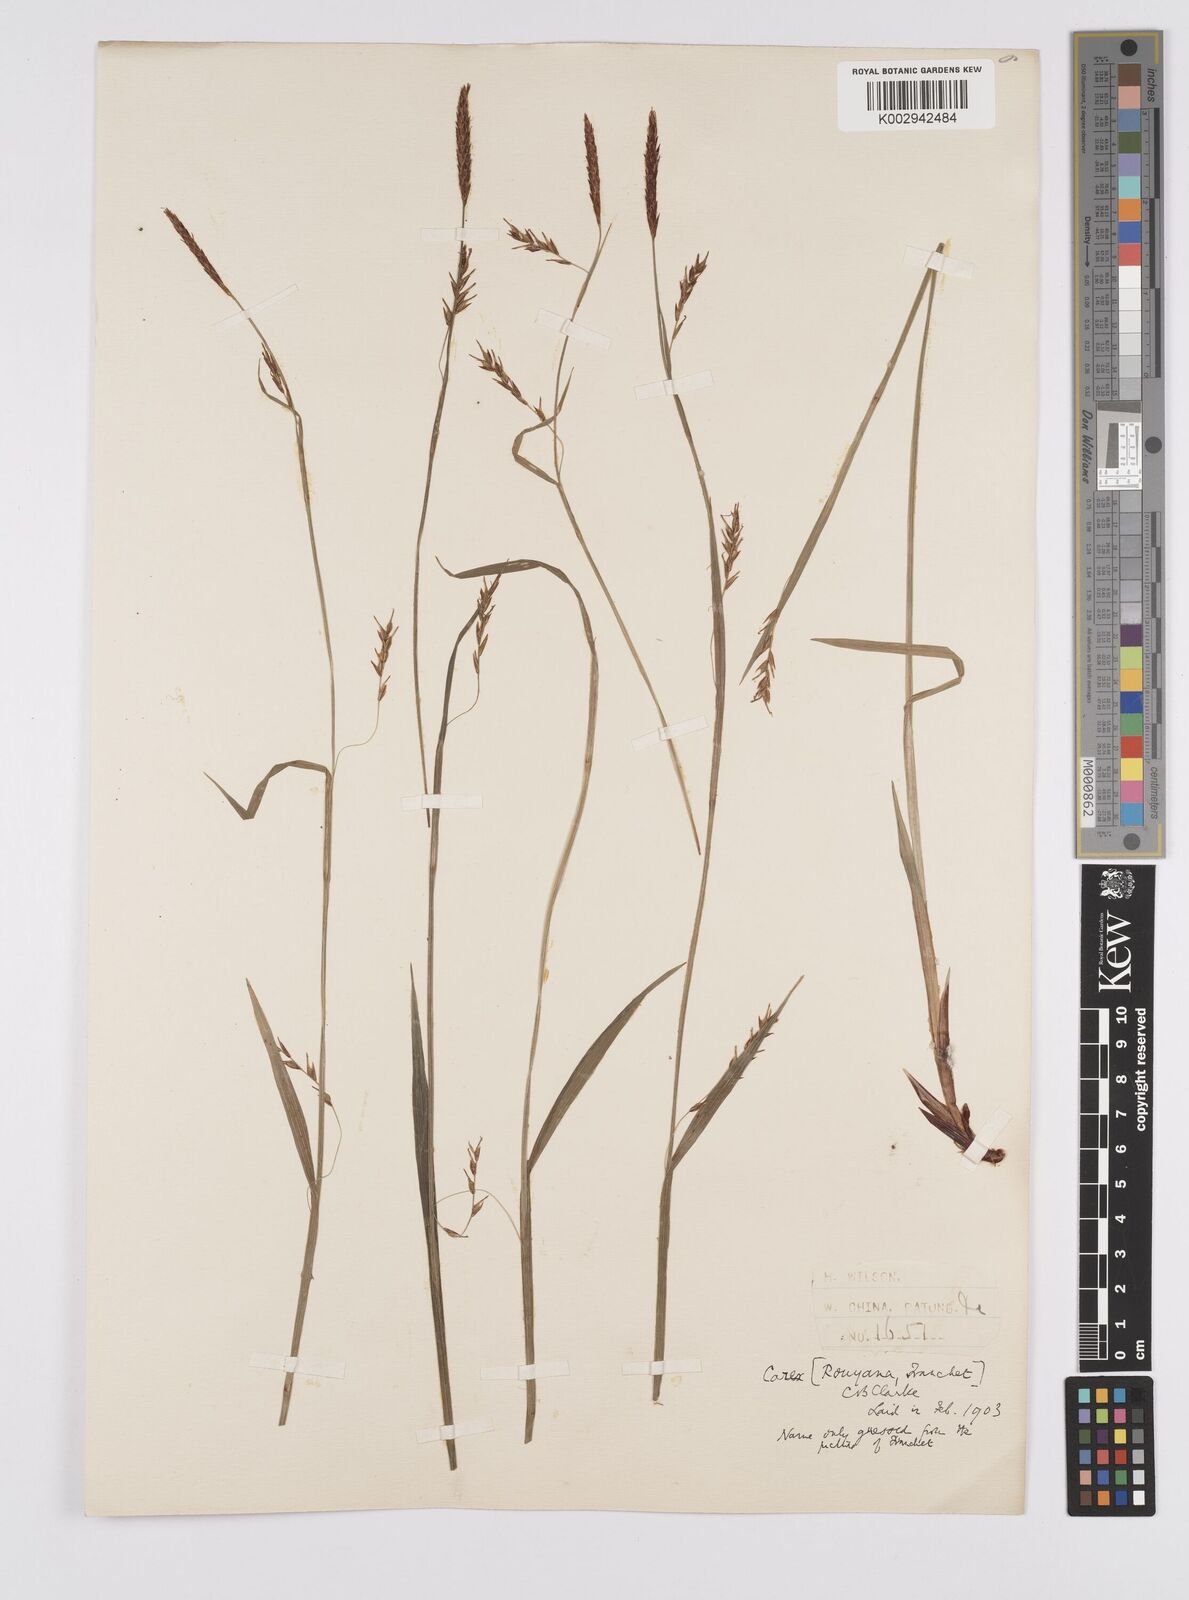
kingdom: Plantae
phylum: Tracheophyta
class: Liliopsida
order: Poales
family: Cyperaceae
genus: Carex
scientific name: Carex filipes
